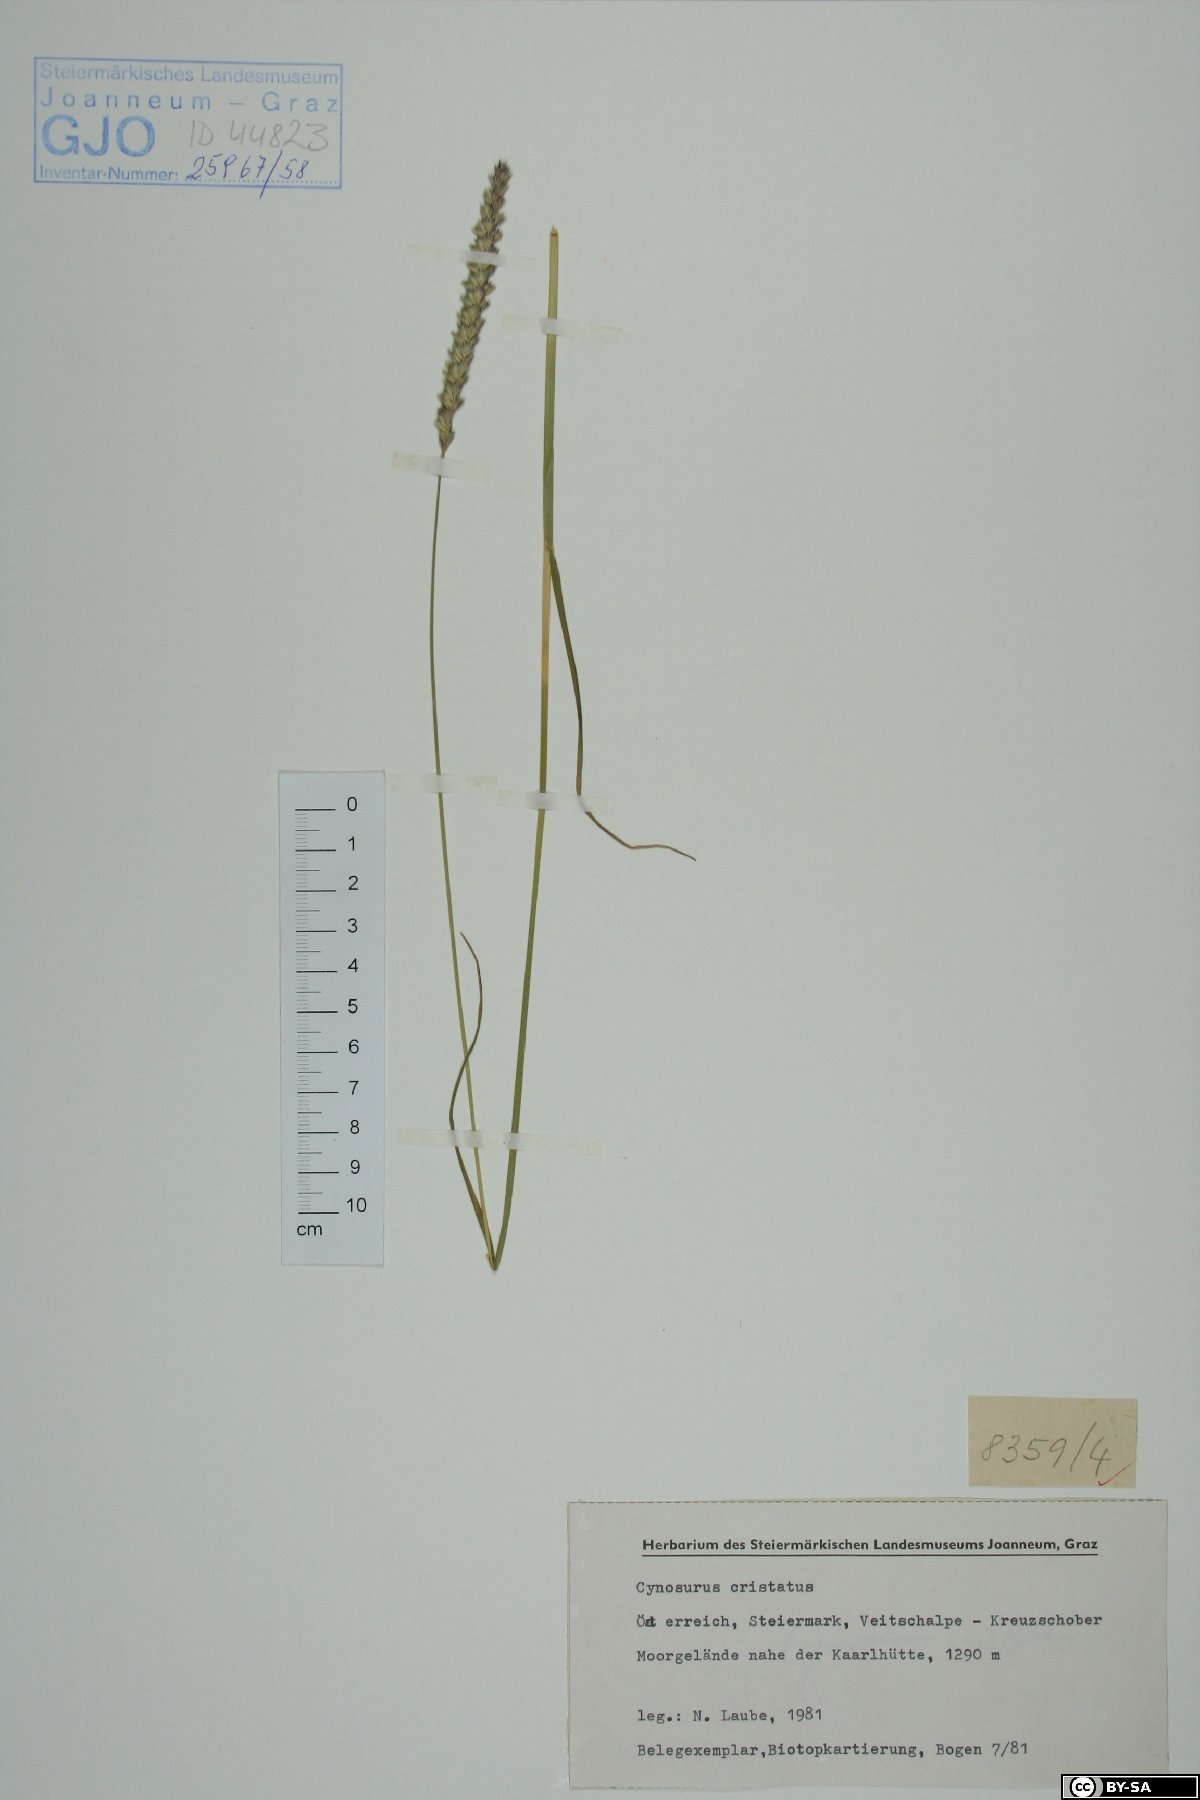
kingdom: Plantae
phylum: Tracheophyta
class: Liliopsida
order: Poales
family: Poaceae
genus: Cynosurus
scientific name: Cynosurus cristatus
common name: Crested dog's-tail
